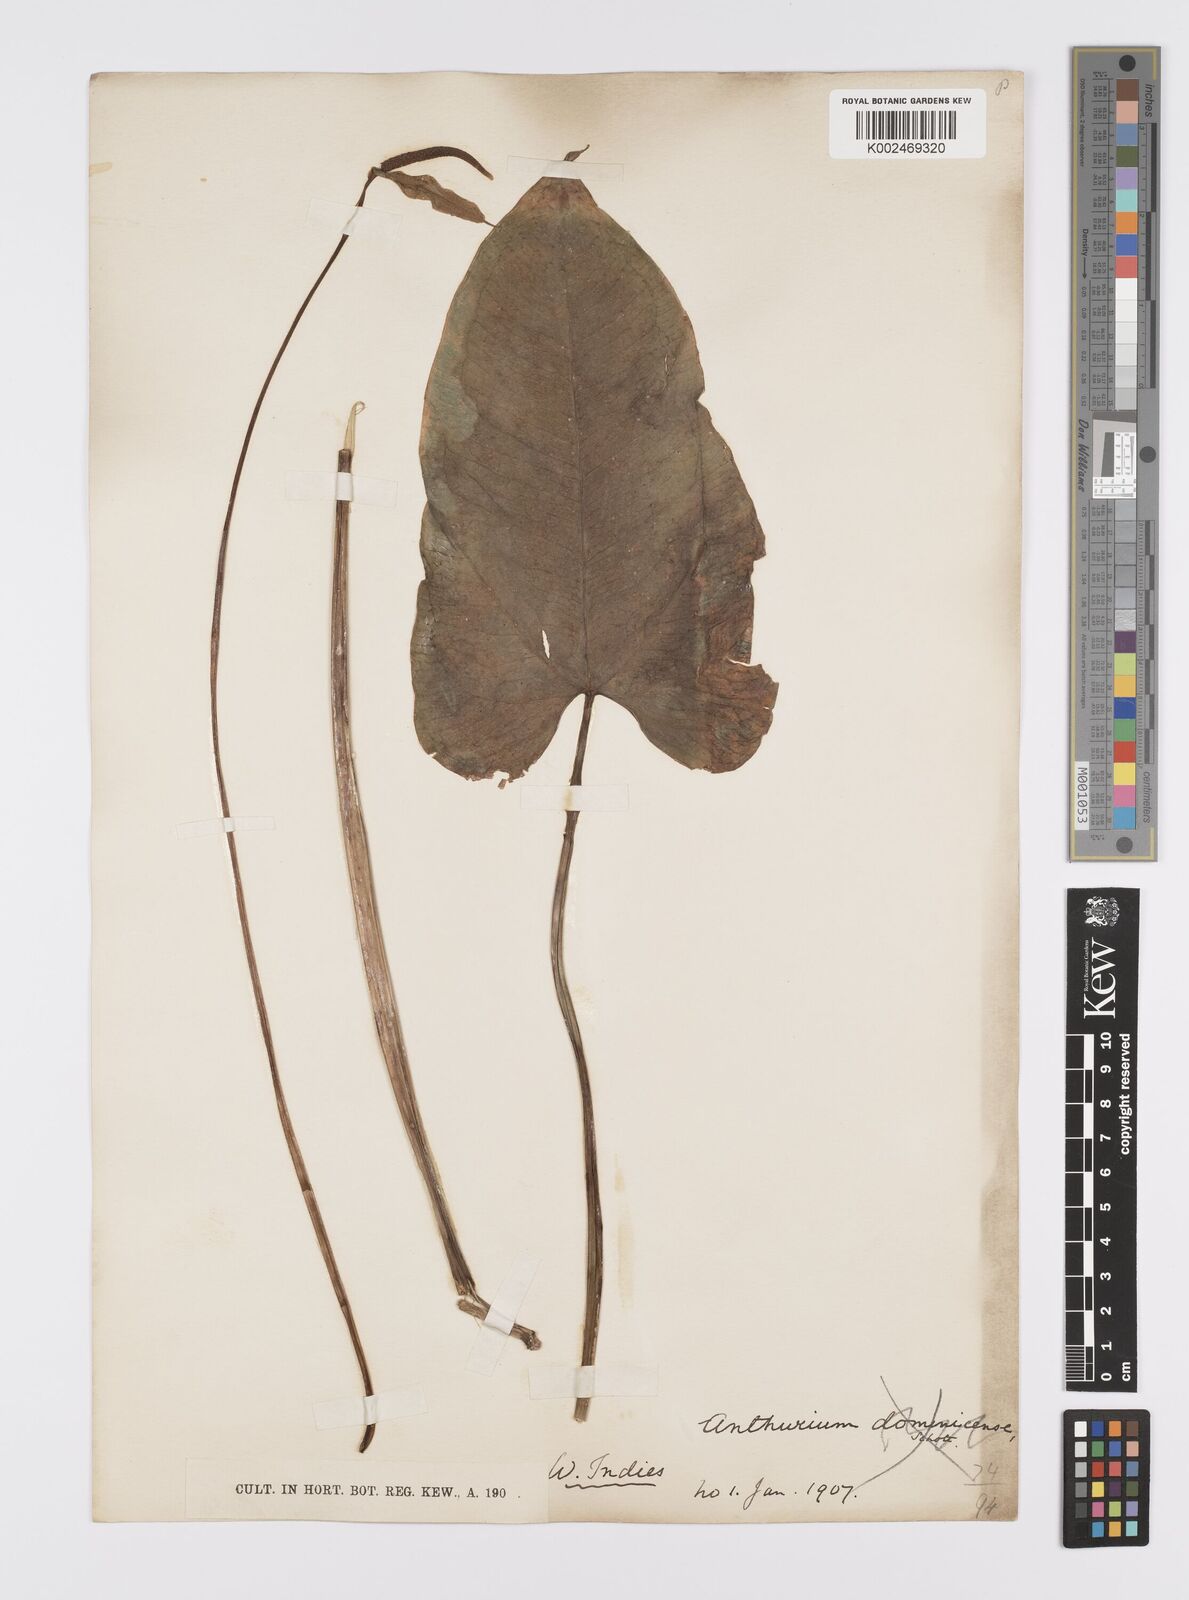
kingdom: Plantae
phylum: Tracheophyta
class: Liliopsida
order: Alismatales
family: Araceae
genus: Anthurium
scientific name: Anthurium
